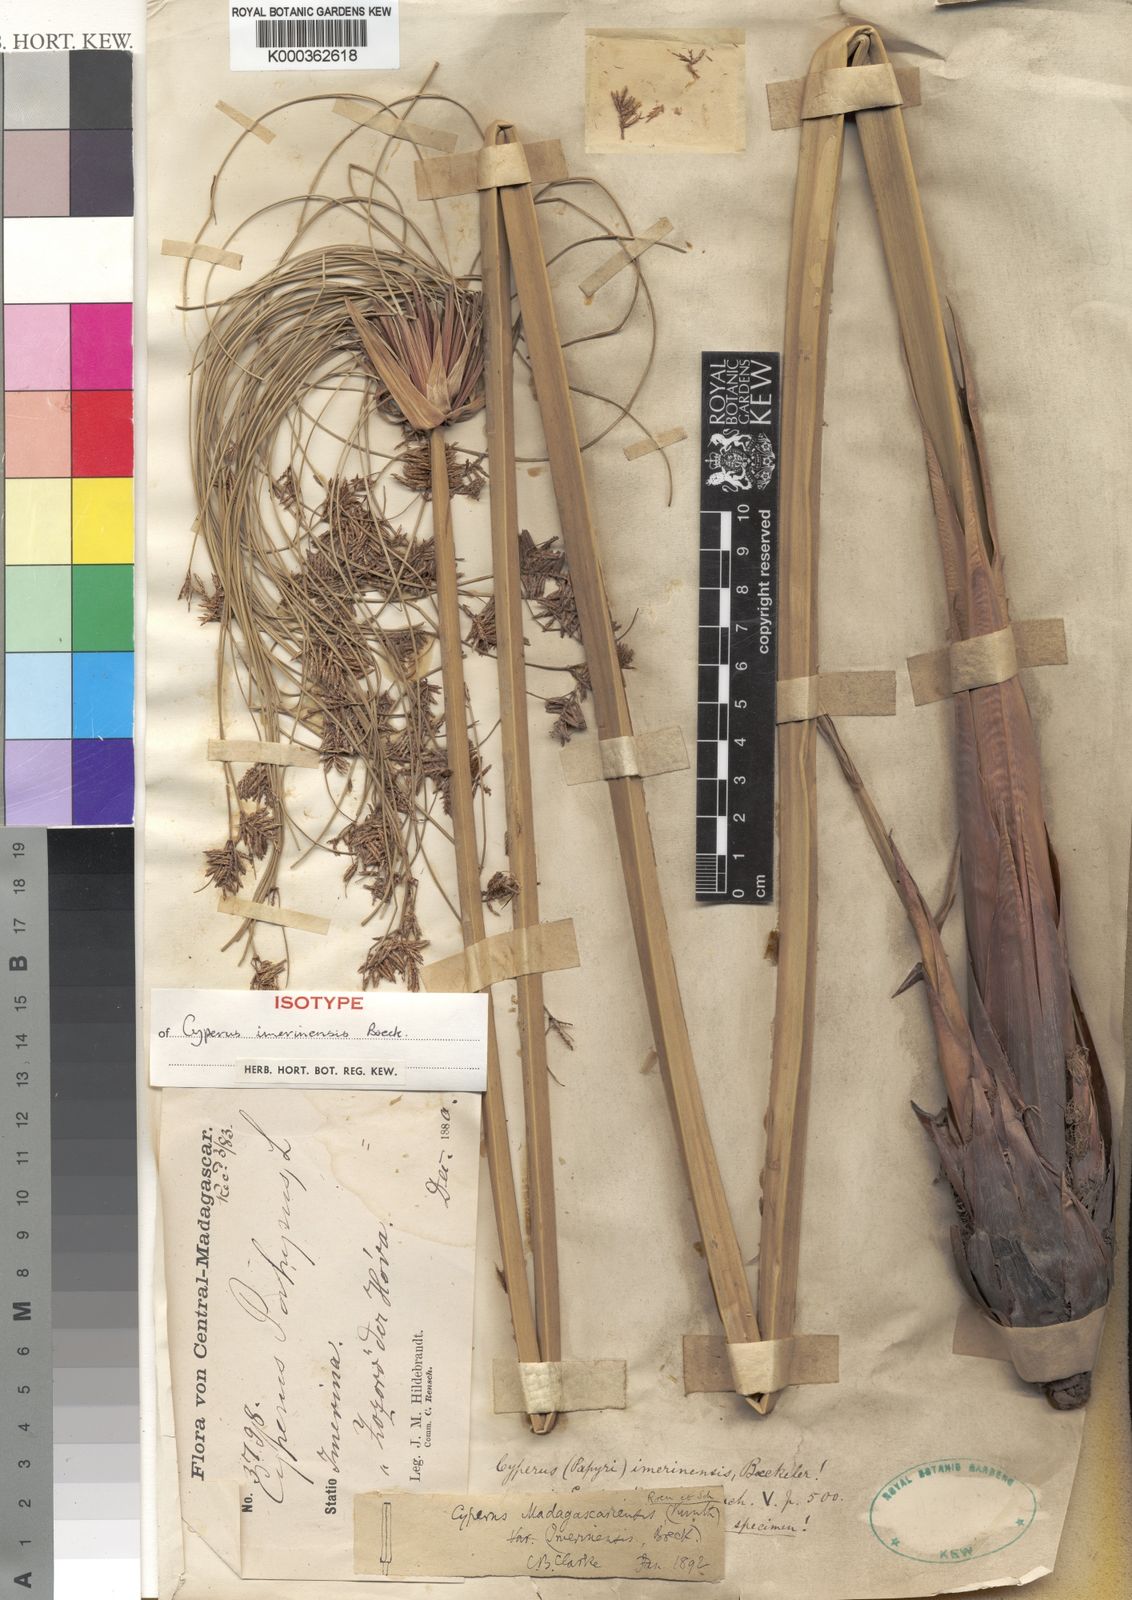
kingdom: Plantae
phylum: Tracheophyta
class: Liliopsida
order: Poales
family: Cyperaceae
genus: Cyperus
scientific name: Cyperus papyrus
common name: Papyrus
